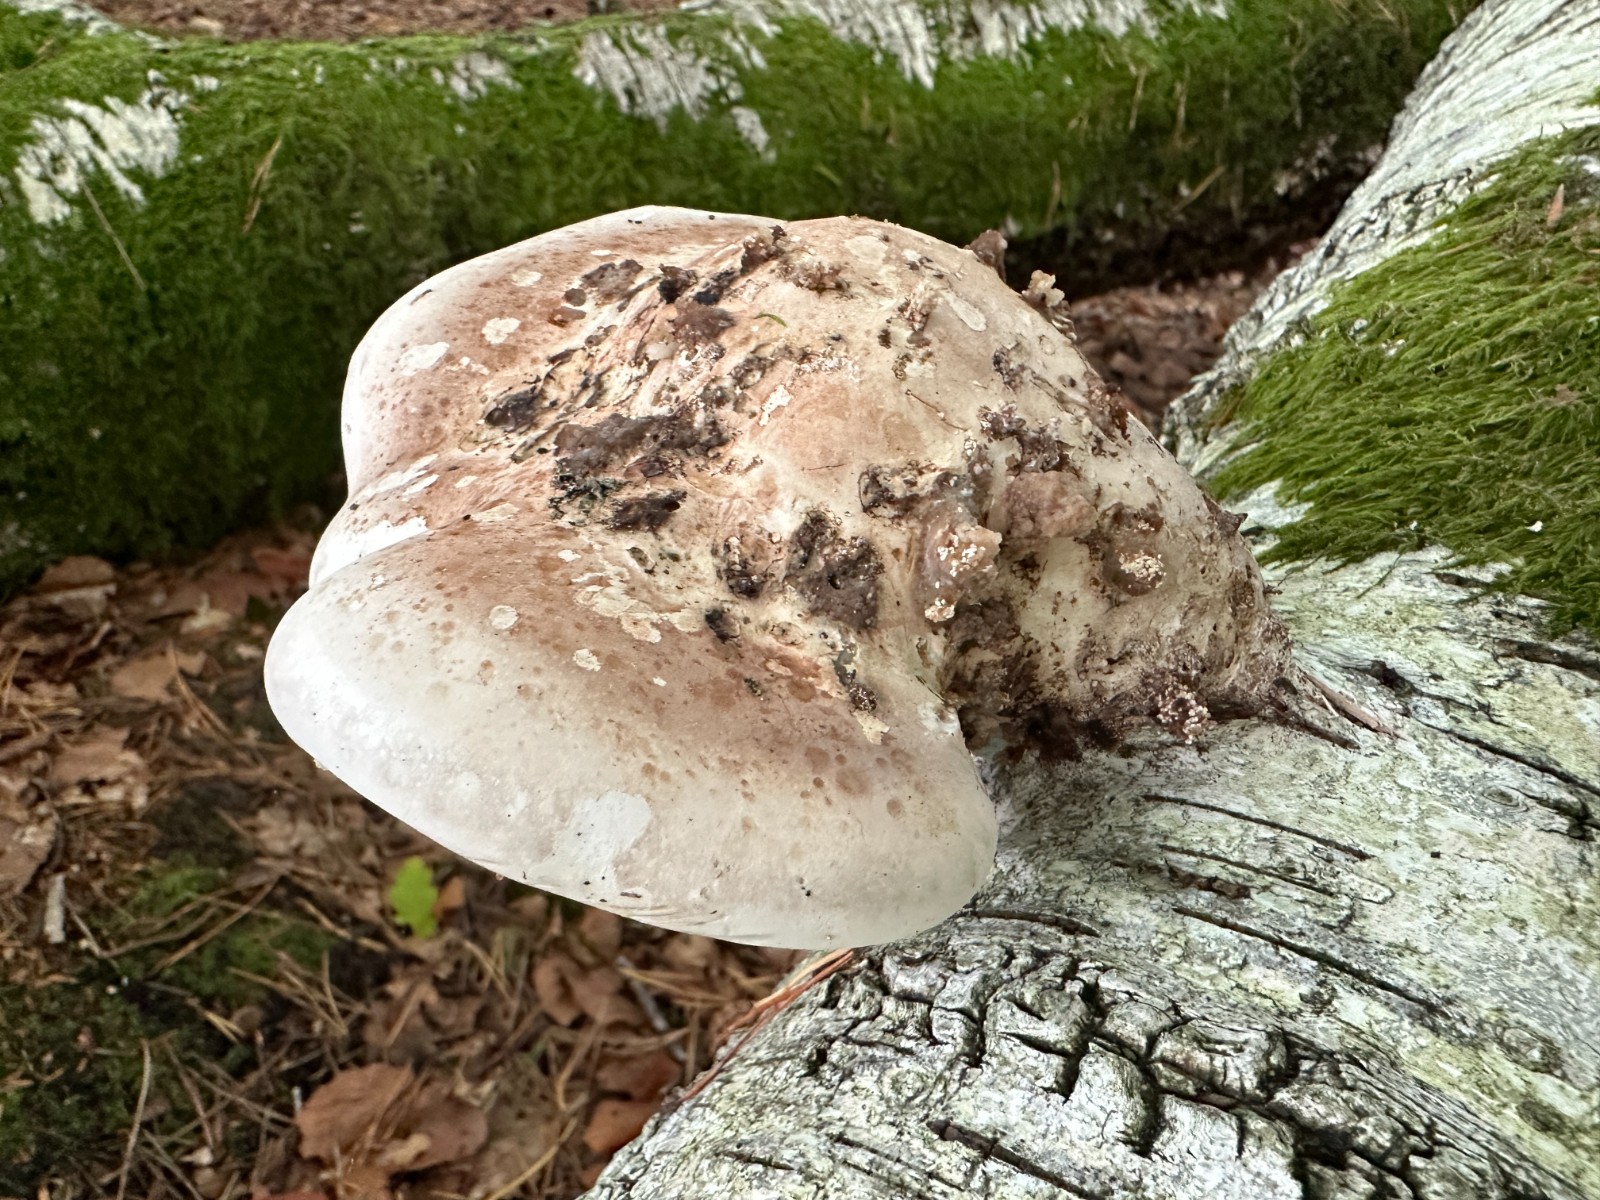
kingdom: Fungi
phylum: Basidiomycota
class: Agaricomycetes
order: Polyporales
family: Fomitopsidaceae
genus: Fomitopsis
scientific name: Fomitopsis betulina
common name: birkeporesvamp
